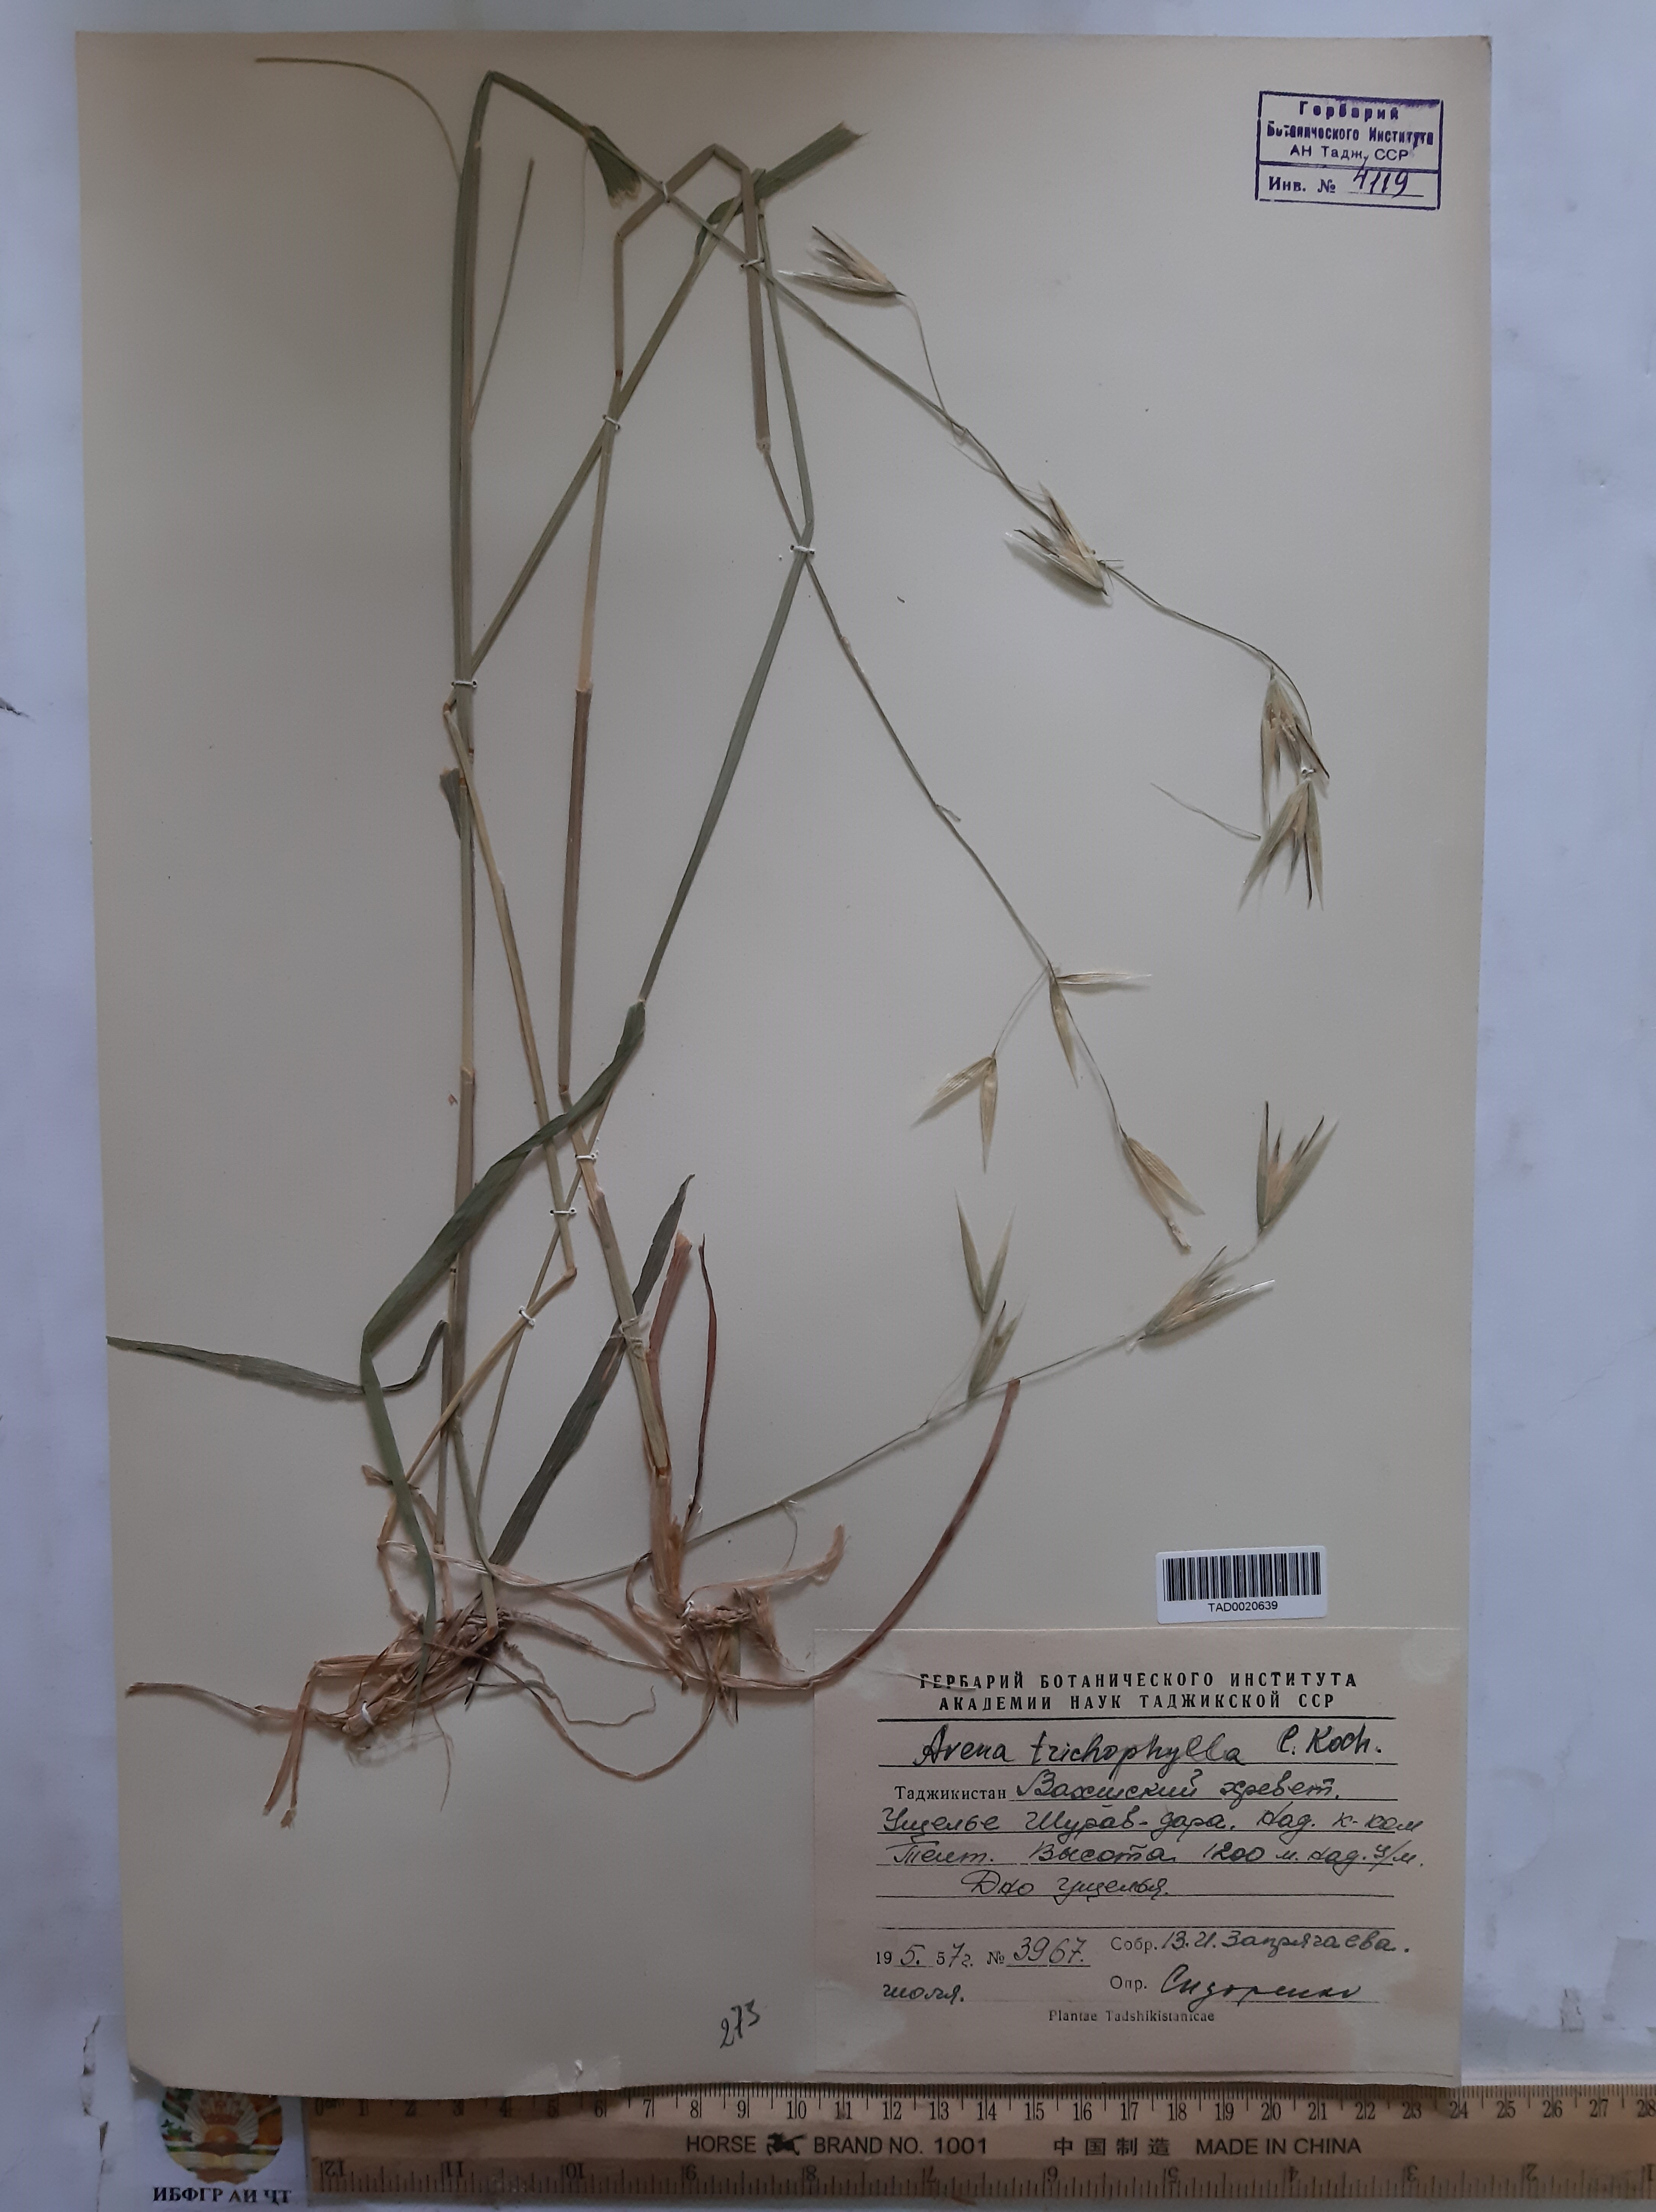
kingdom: Plantae
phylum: Tracheophyta
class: Liliopsida
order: Poales
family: Poaceae
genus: Avena
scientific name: Avena sterilis
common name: Animated oat
